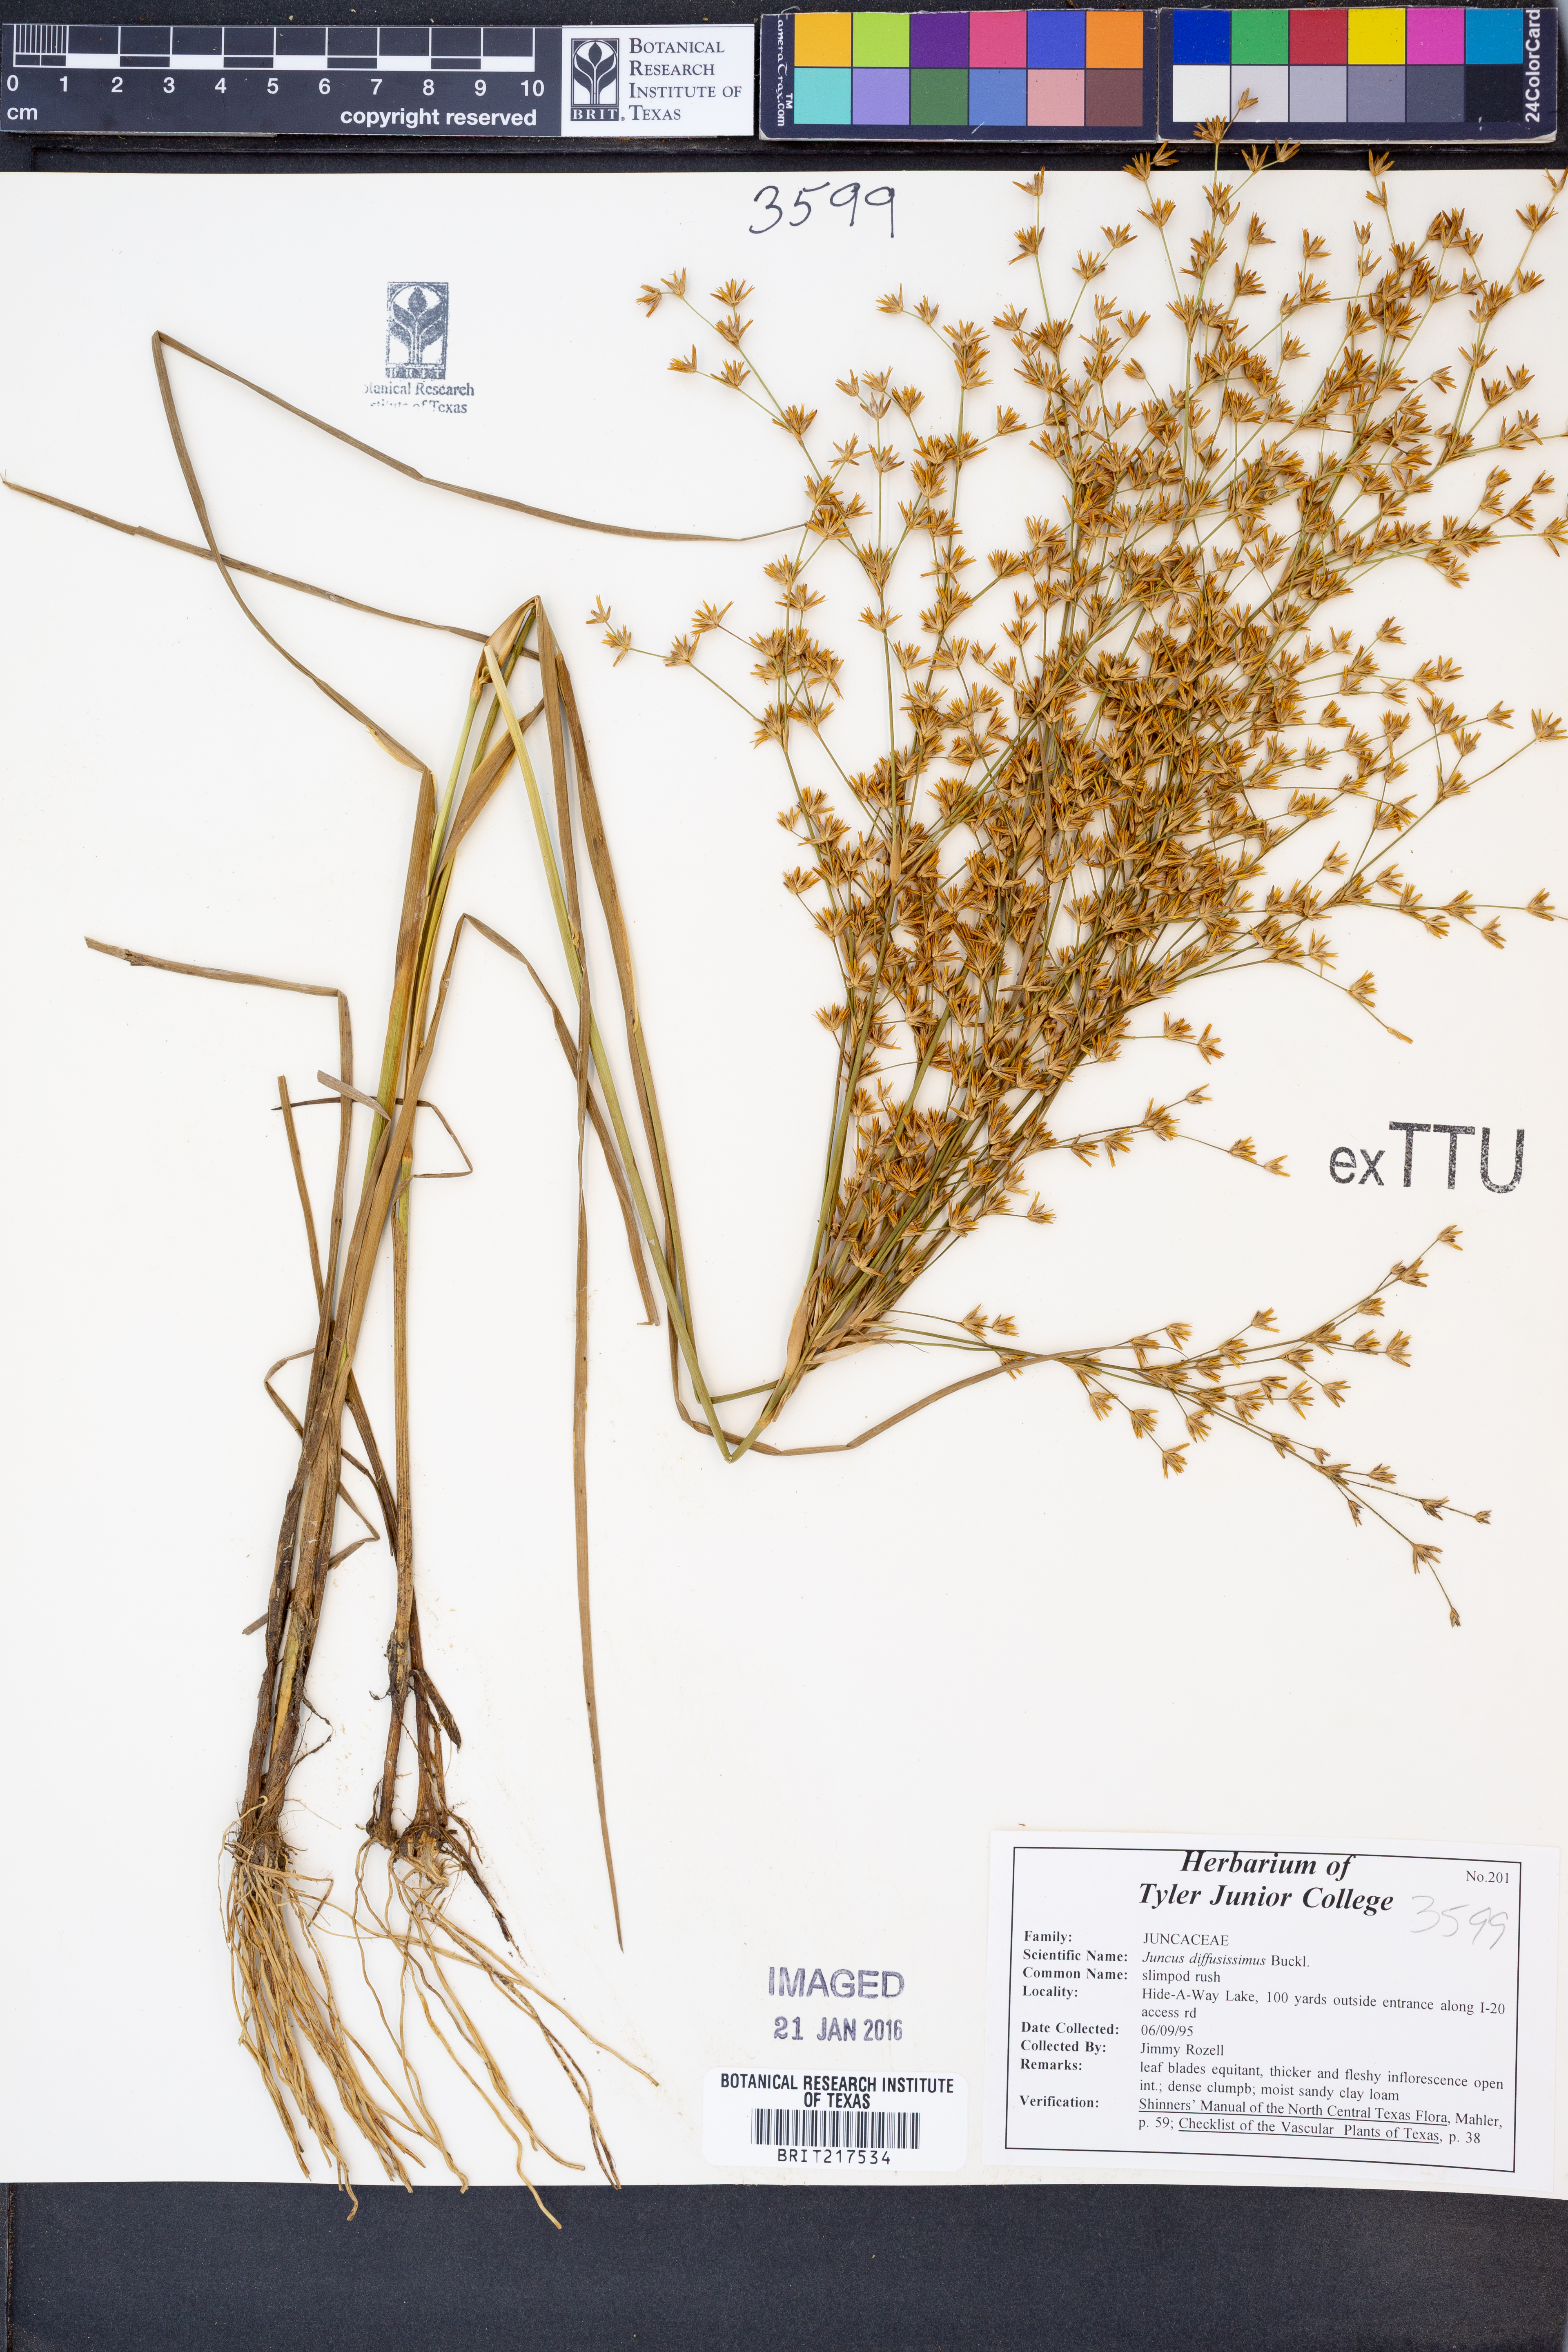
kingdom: Plantae
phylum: Tracheophyta
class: Liliopsida
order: Poales
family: Juncaceae
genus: Juncus
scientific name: Juncus diffusissimus
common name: Slimpod rush
